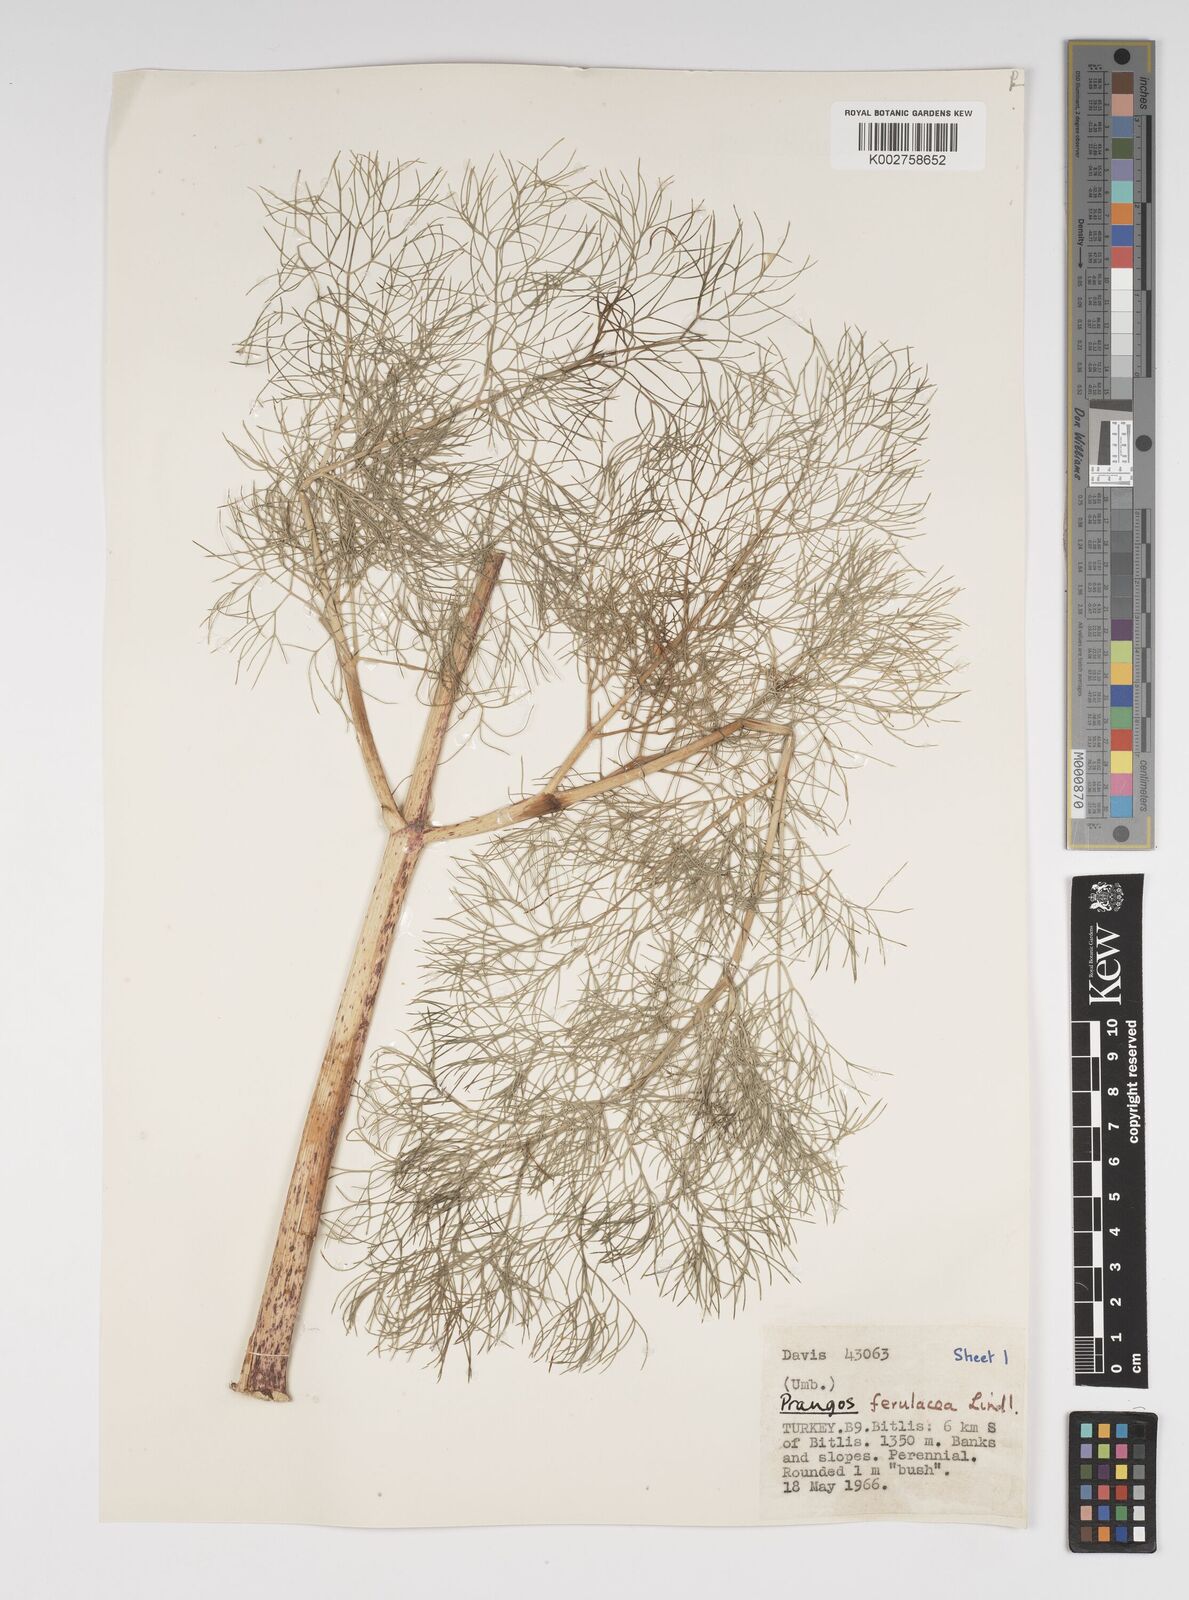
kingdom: Plantae
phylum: Tracheophyta
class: Magnoliopsida
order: Apiales
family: Apiaceae
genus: Prangos
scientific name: Prangos ferulacea
